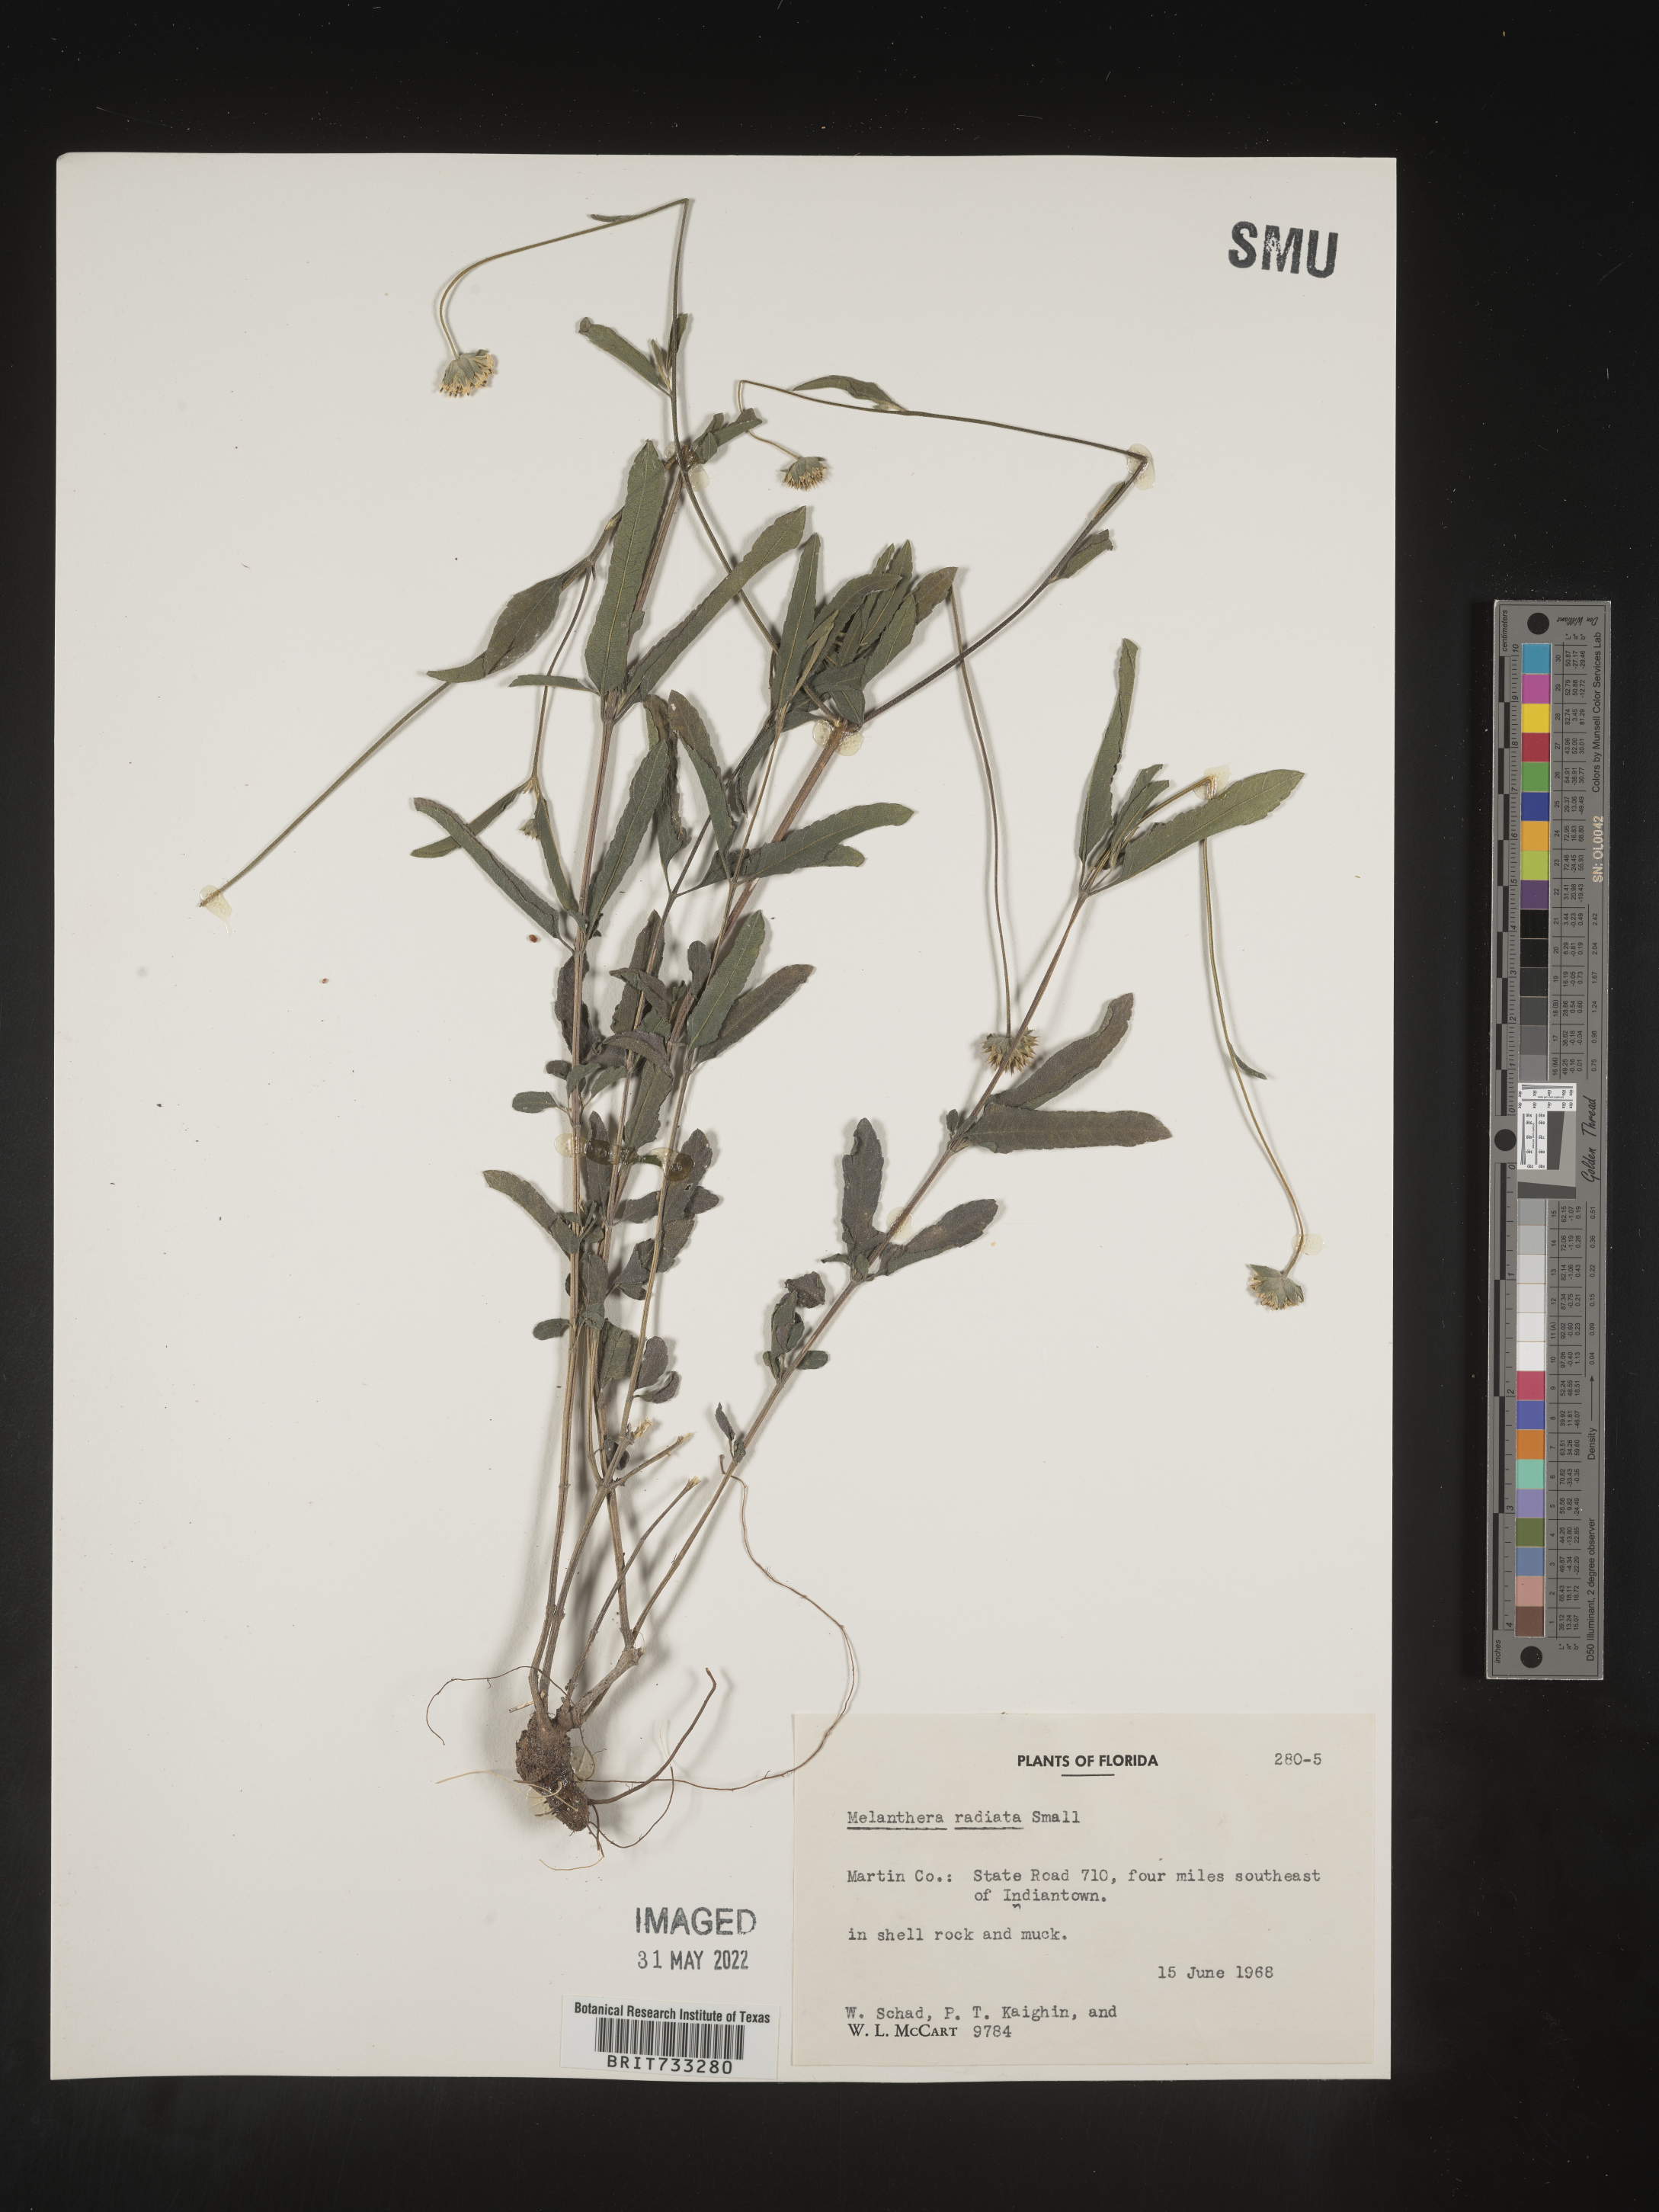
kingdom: Plantae
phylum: Tracheophyta
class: Magnoliopsida
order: Asterales
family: Asteraceae
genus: Melanthera
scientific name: Melanthera parvifolia
